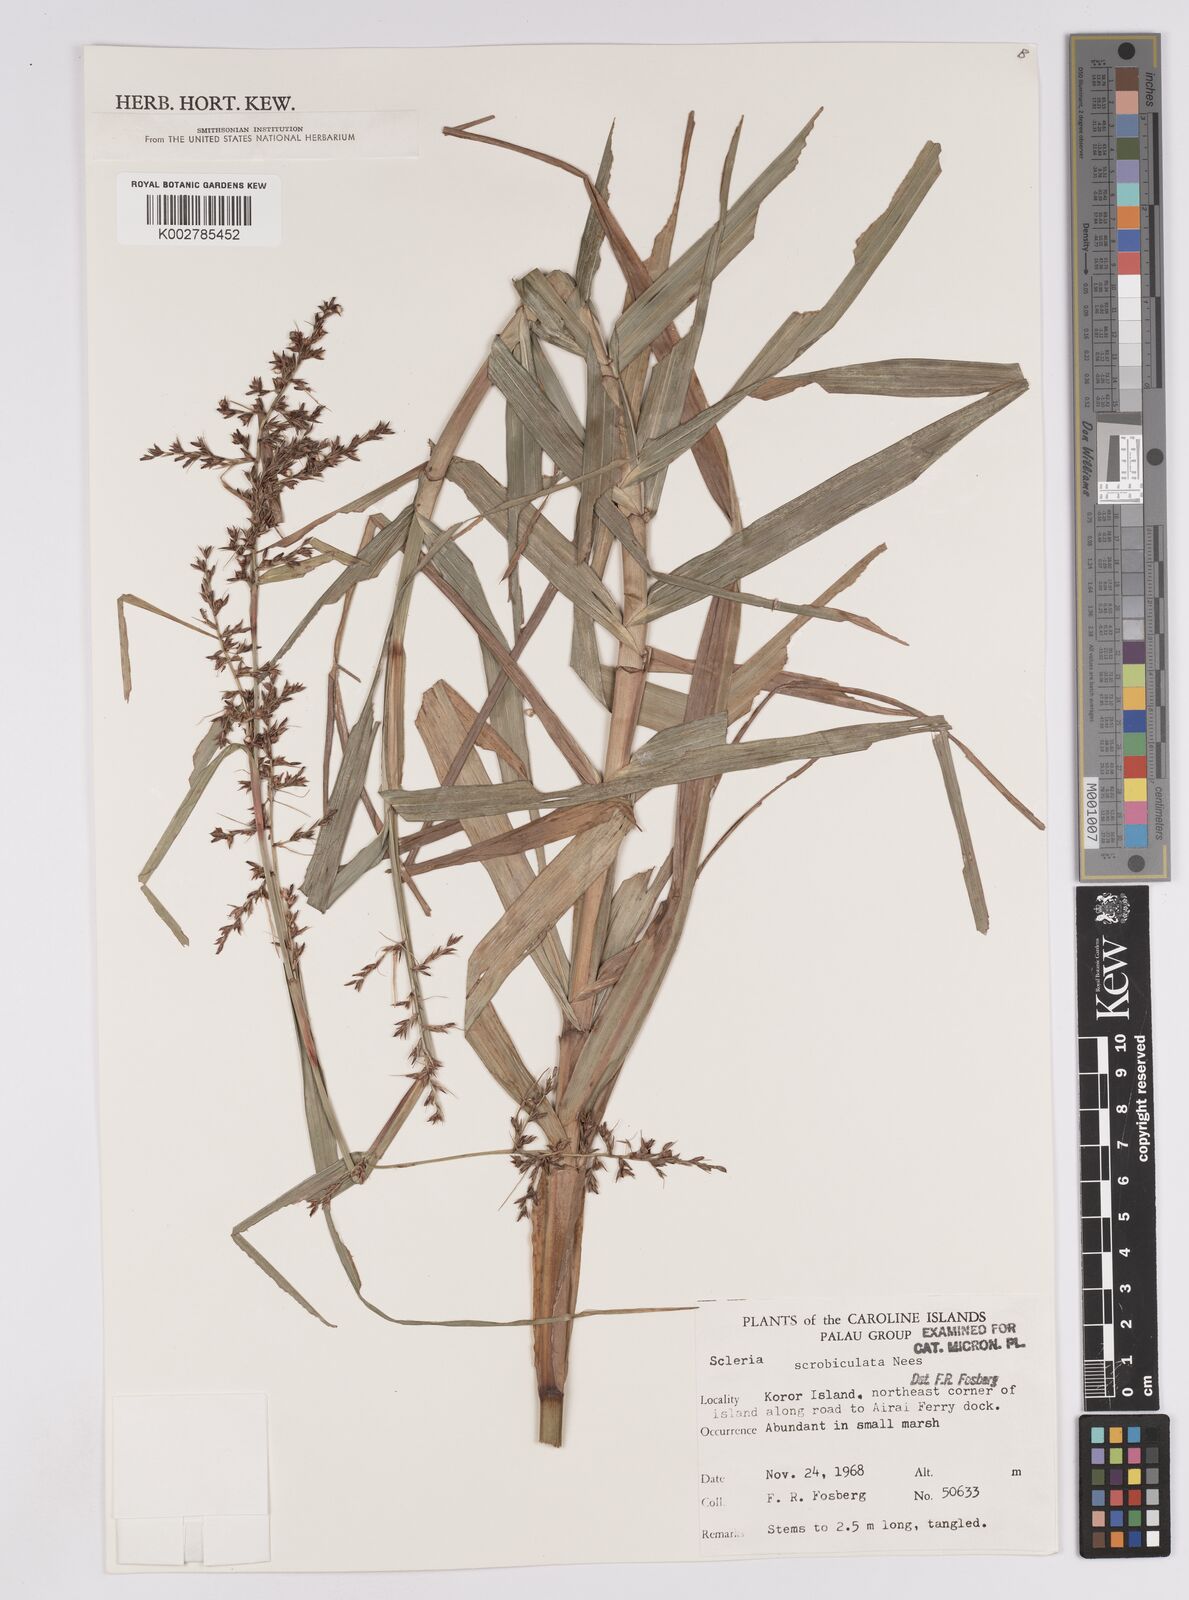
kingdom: Plantae
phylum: Tracheophyta
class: Liliopsida
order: Poales
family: Cyperaceae
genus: Scleria
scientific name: Scleria scrobiculata
